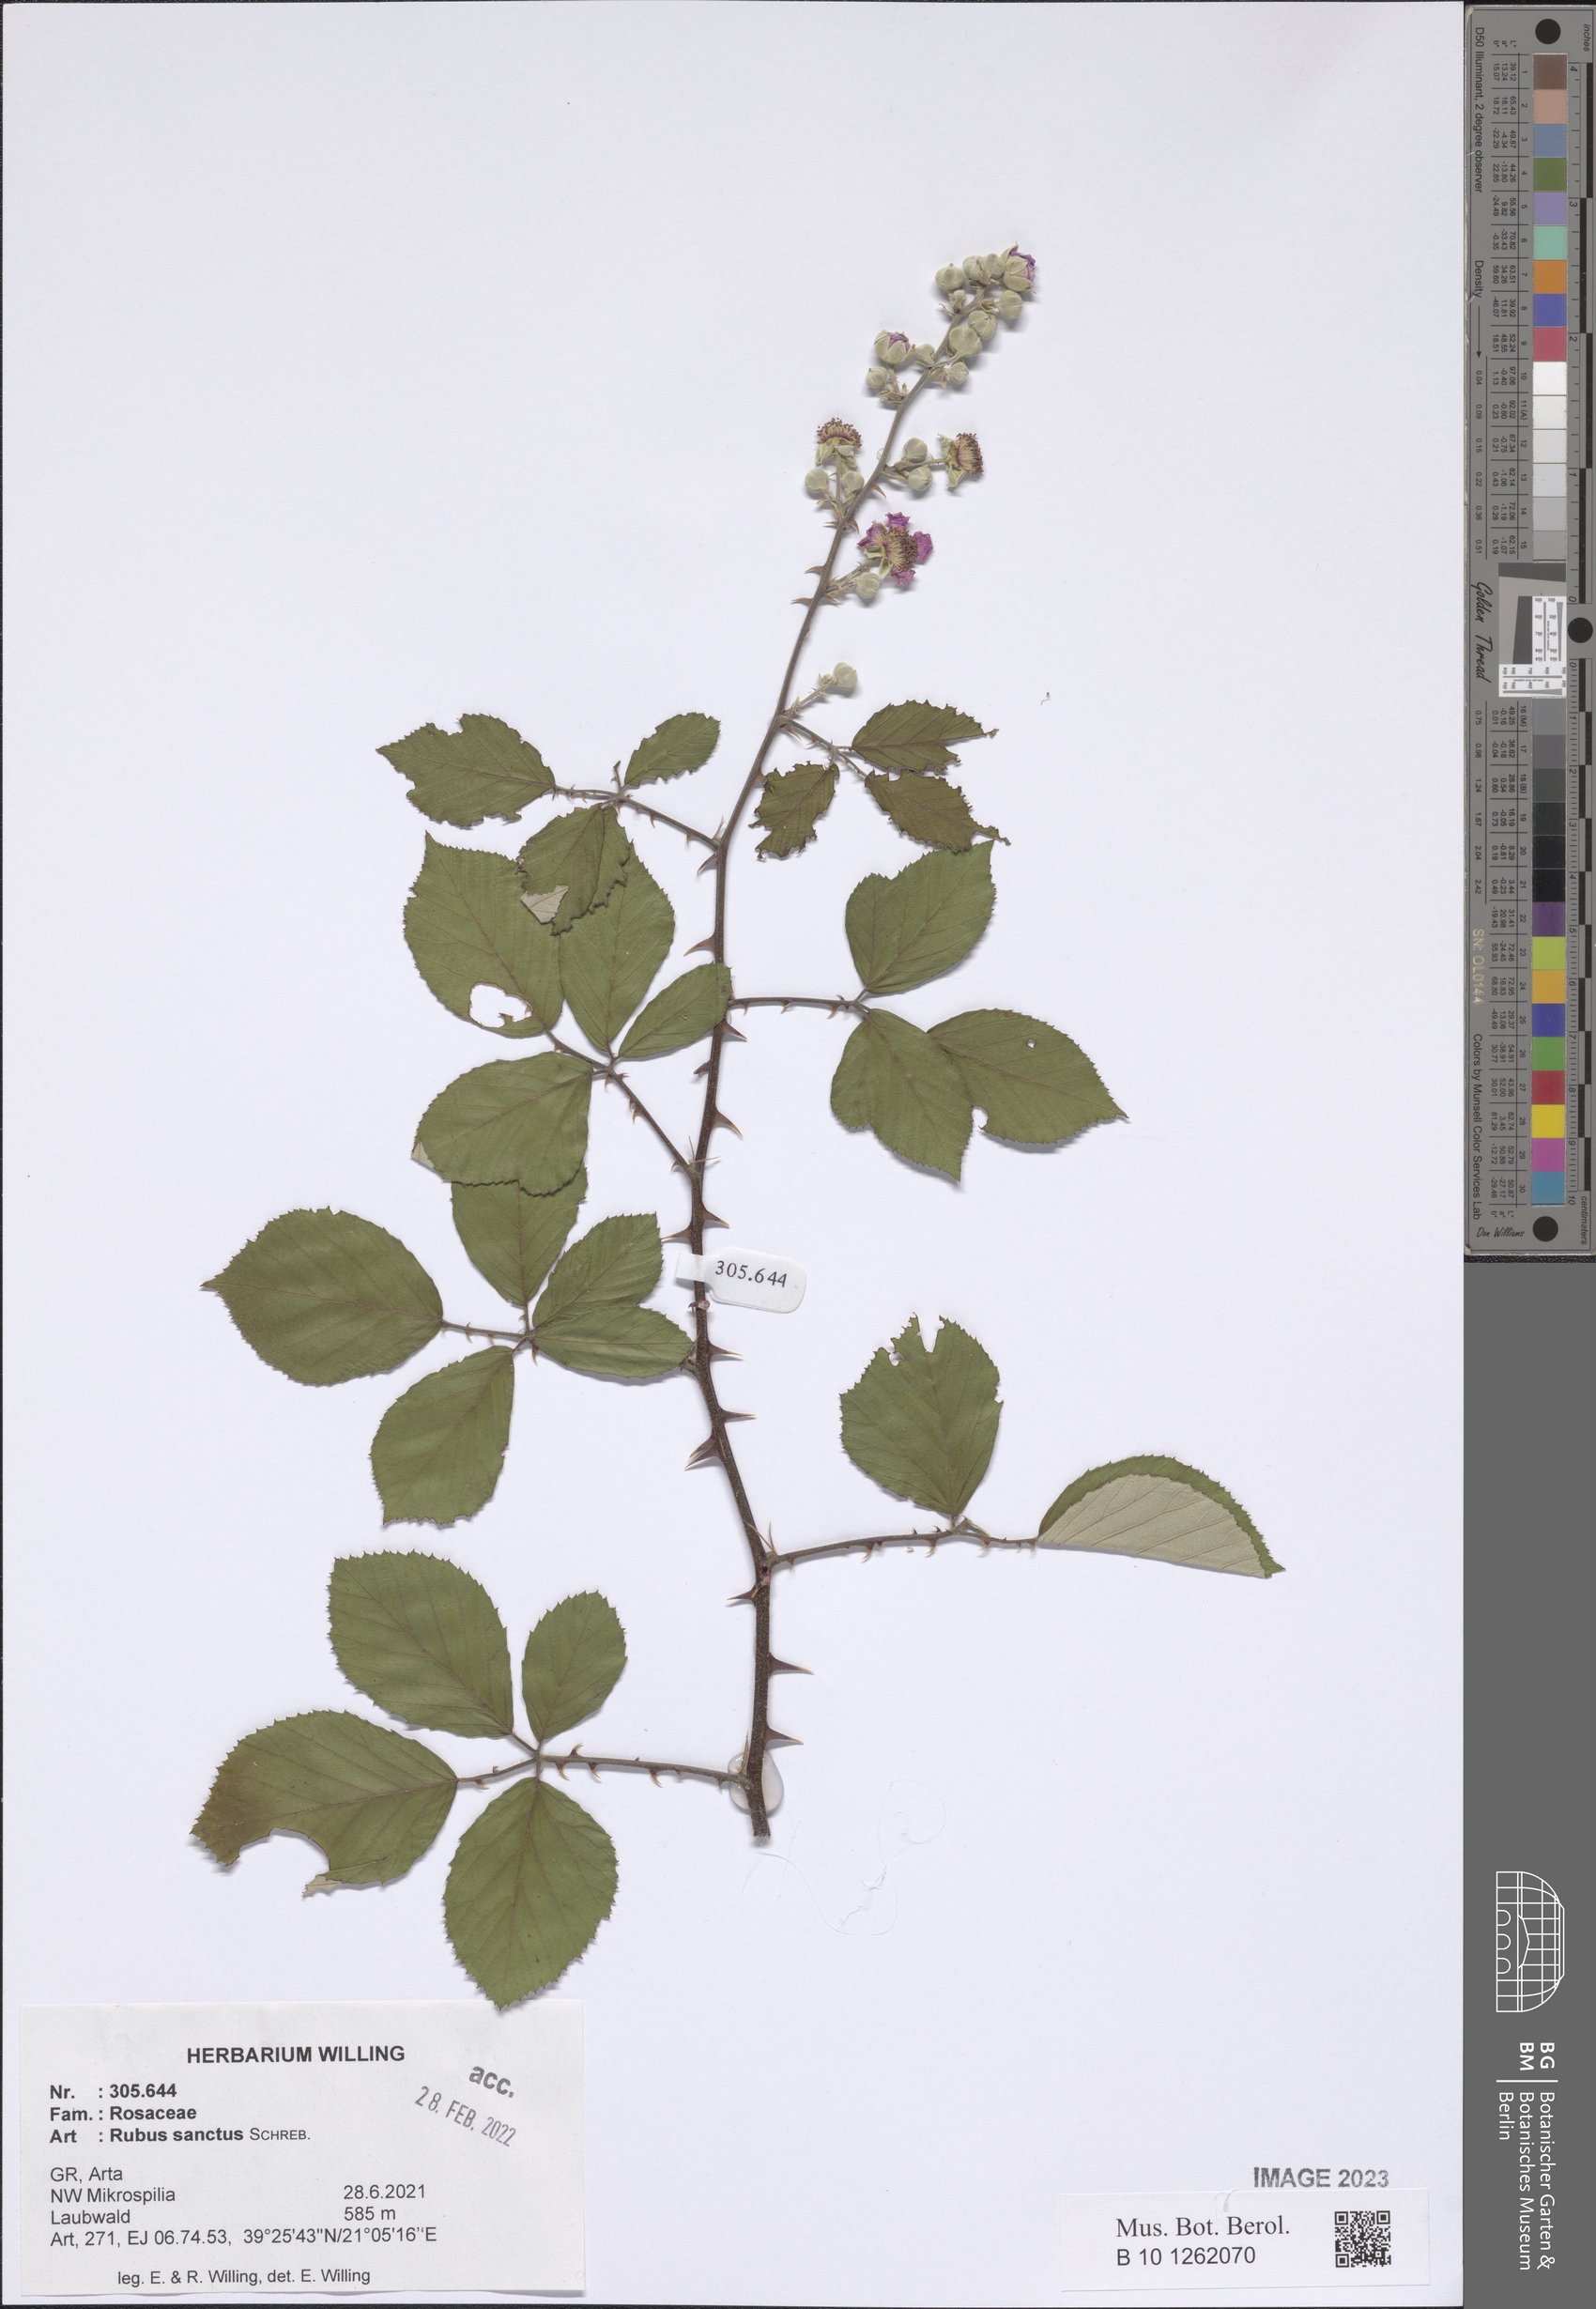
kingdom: Plantae
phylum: Tracheophyta
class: Magnoliopsida
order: Rosales
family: Rosaceae
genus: Rubus
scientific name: Rubus sanctus
